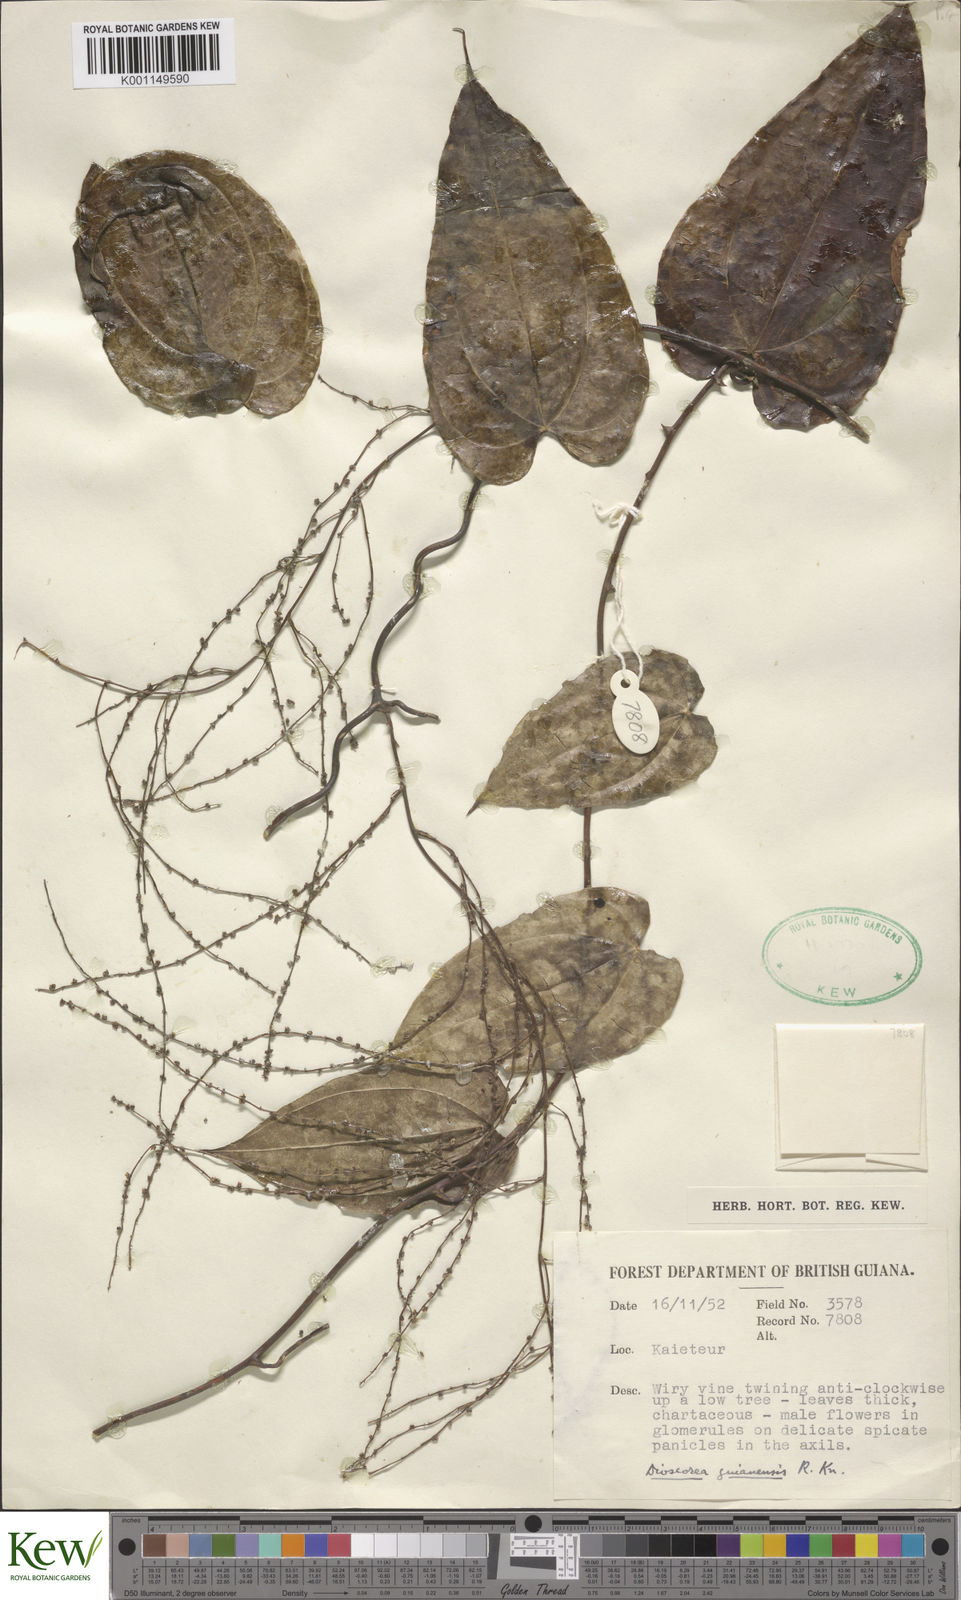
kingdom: Plantae
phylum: Tracheophyta
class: Liliopsida
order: Dioscoreales
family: Dioscoreaceae
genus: Dioscorea
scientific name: Dioscorea guianensis
